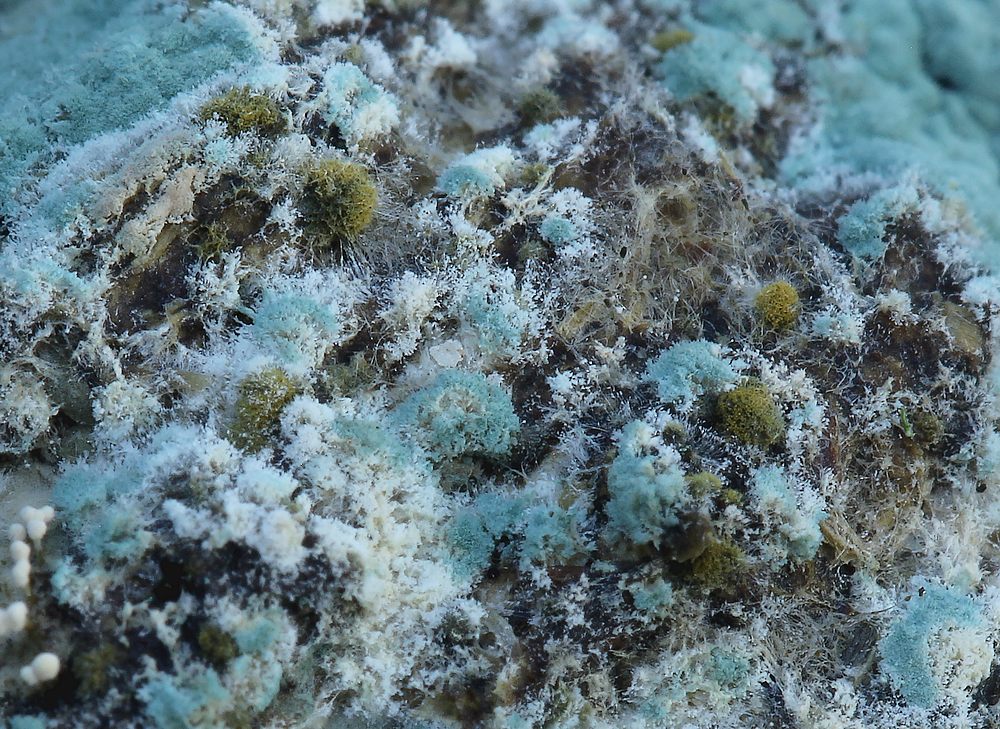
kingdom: Fungi
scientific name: Fungi
